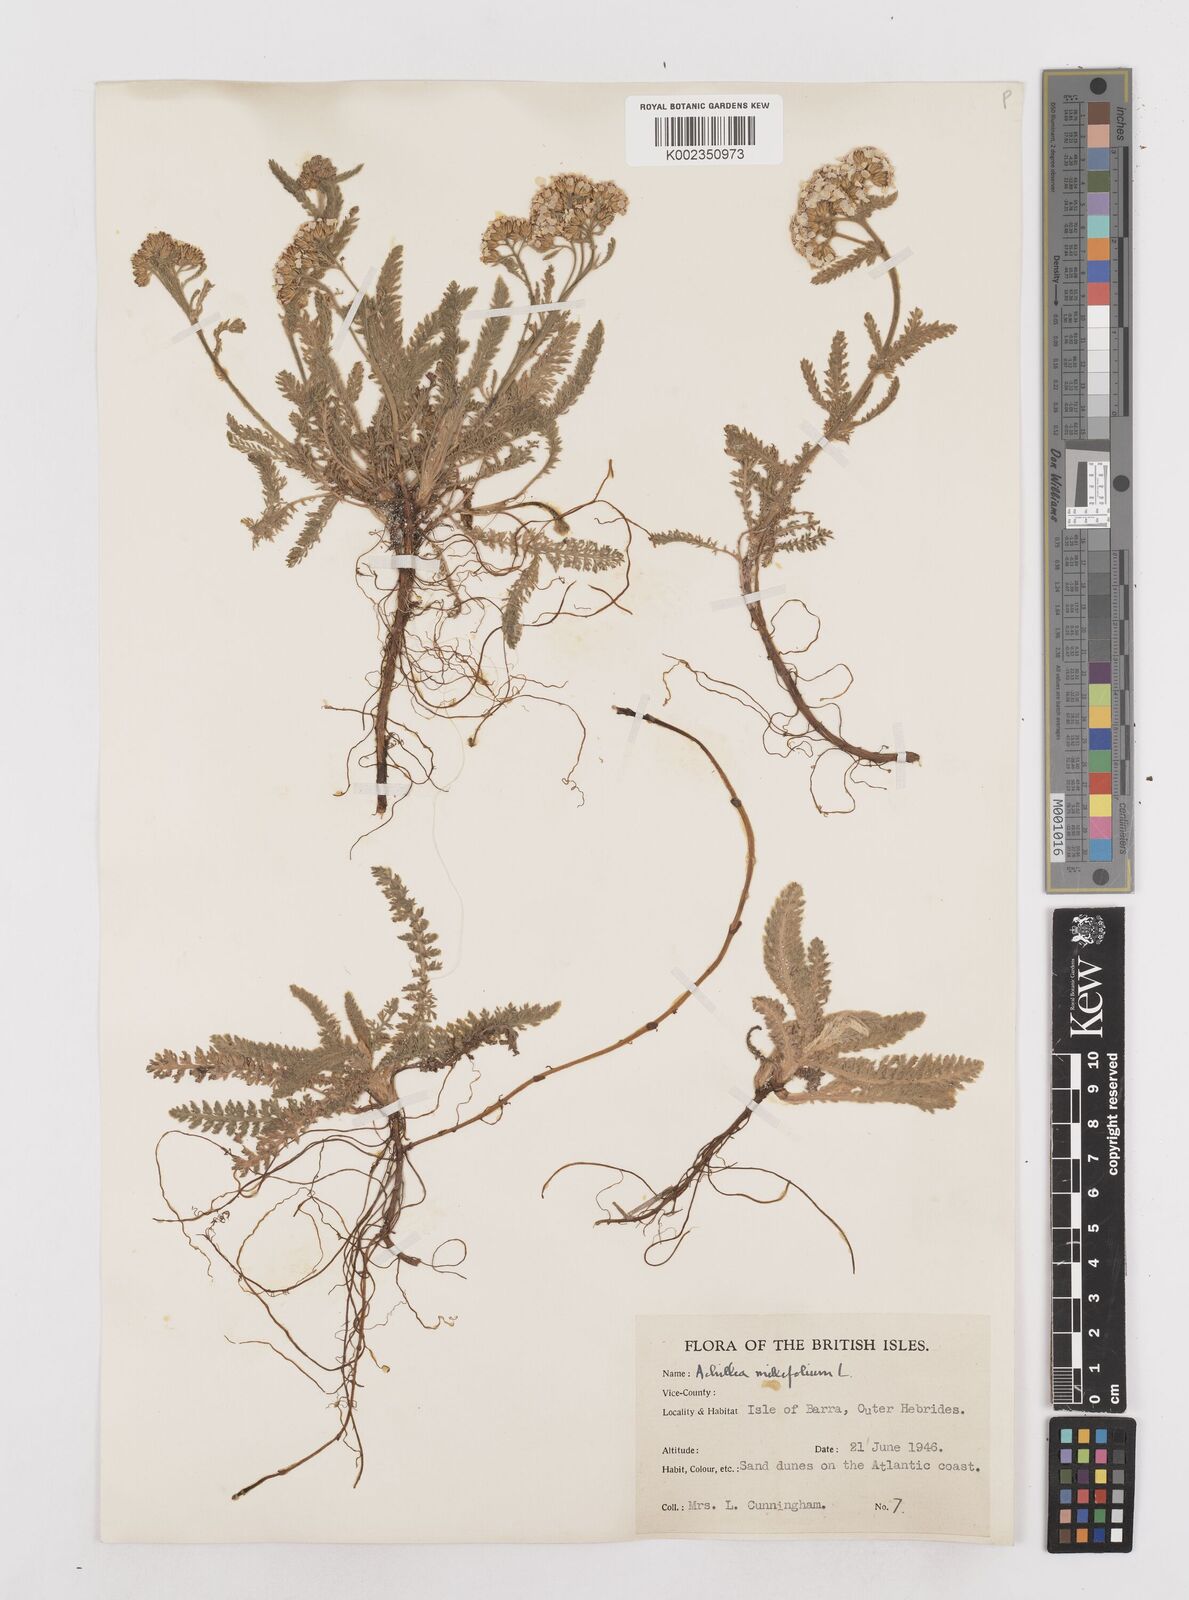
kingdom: Plantae
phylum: Tracheophyta
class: Magnoliopsida
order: Asterales
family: Asteraceae
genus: Achillea
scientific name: Achillea millefolium
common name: Yarrow
